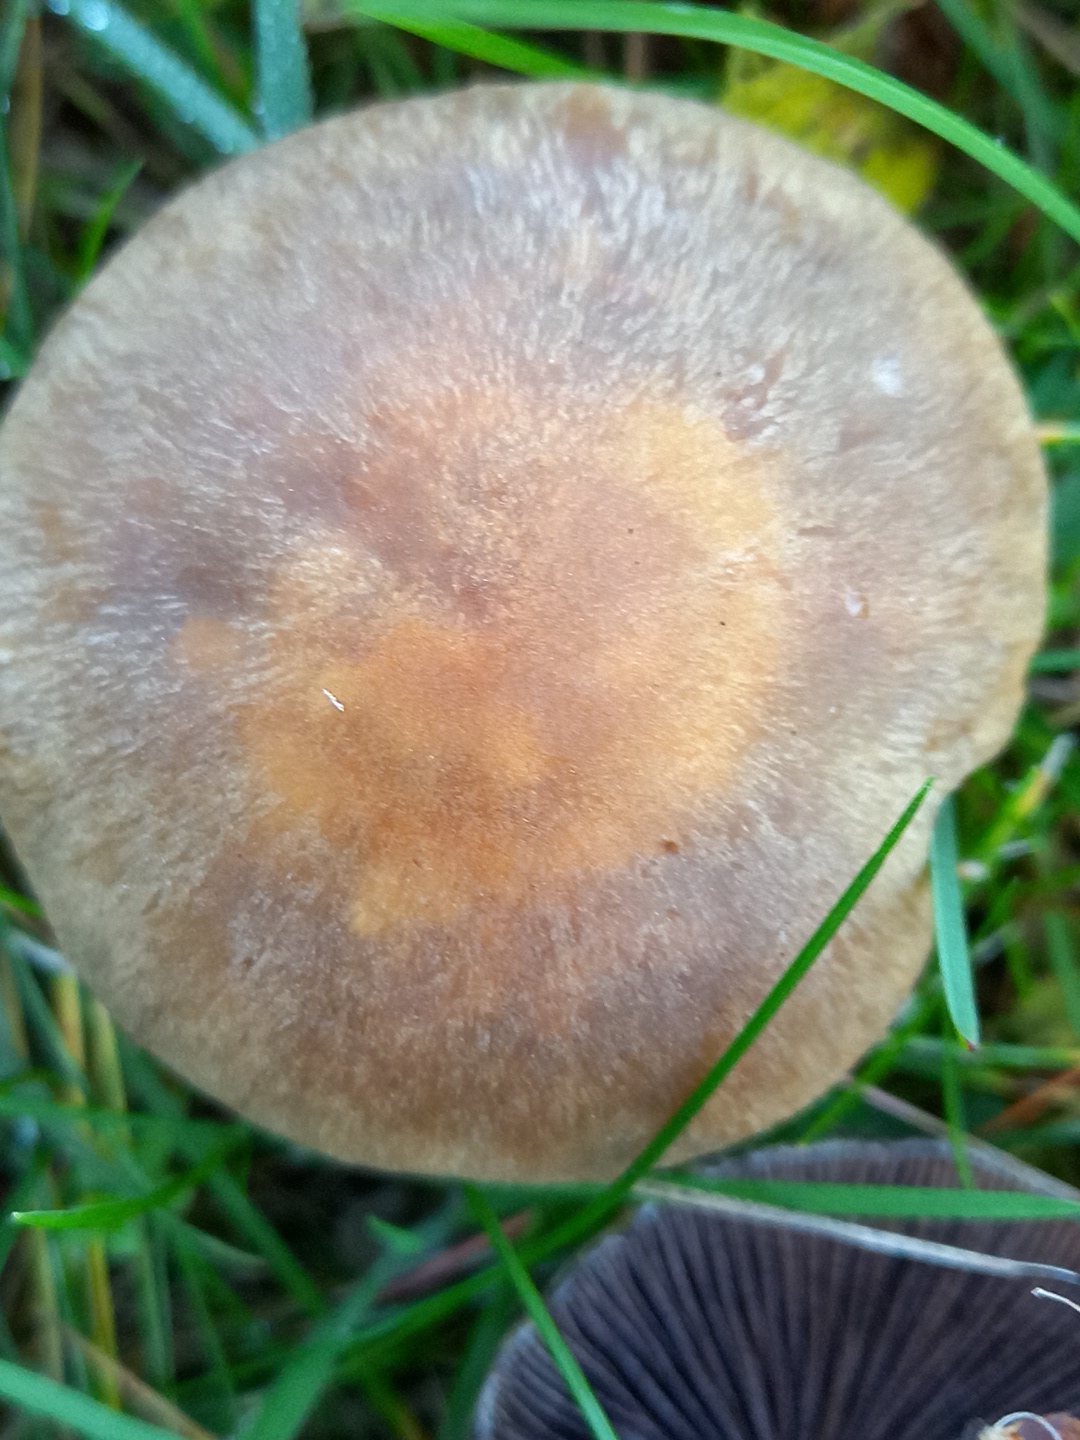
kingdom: Fungi
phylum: Basidiomycota
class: Agaricomycetes
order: Agaricales
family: Psathyrellaceae
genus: Lacrymaria
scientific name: Lacrymaria lacrymabunda
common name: grædende mørkhat
